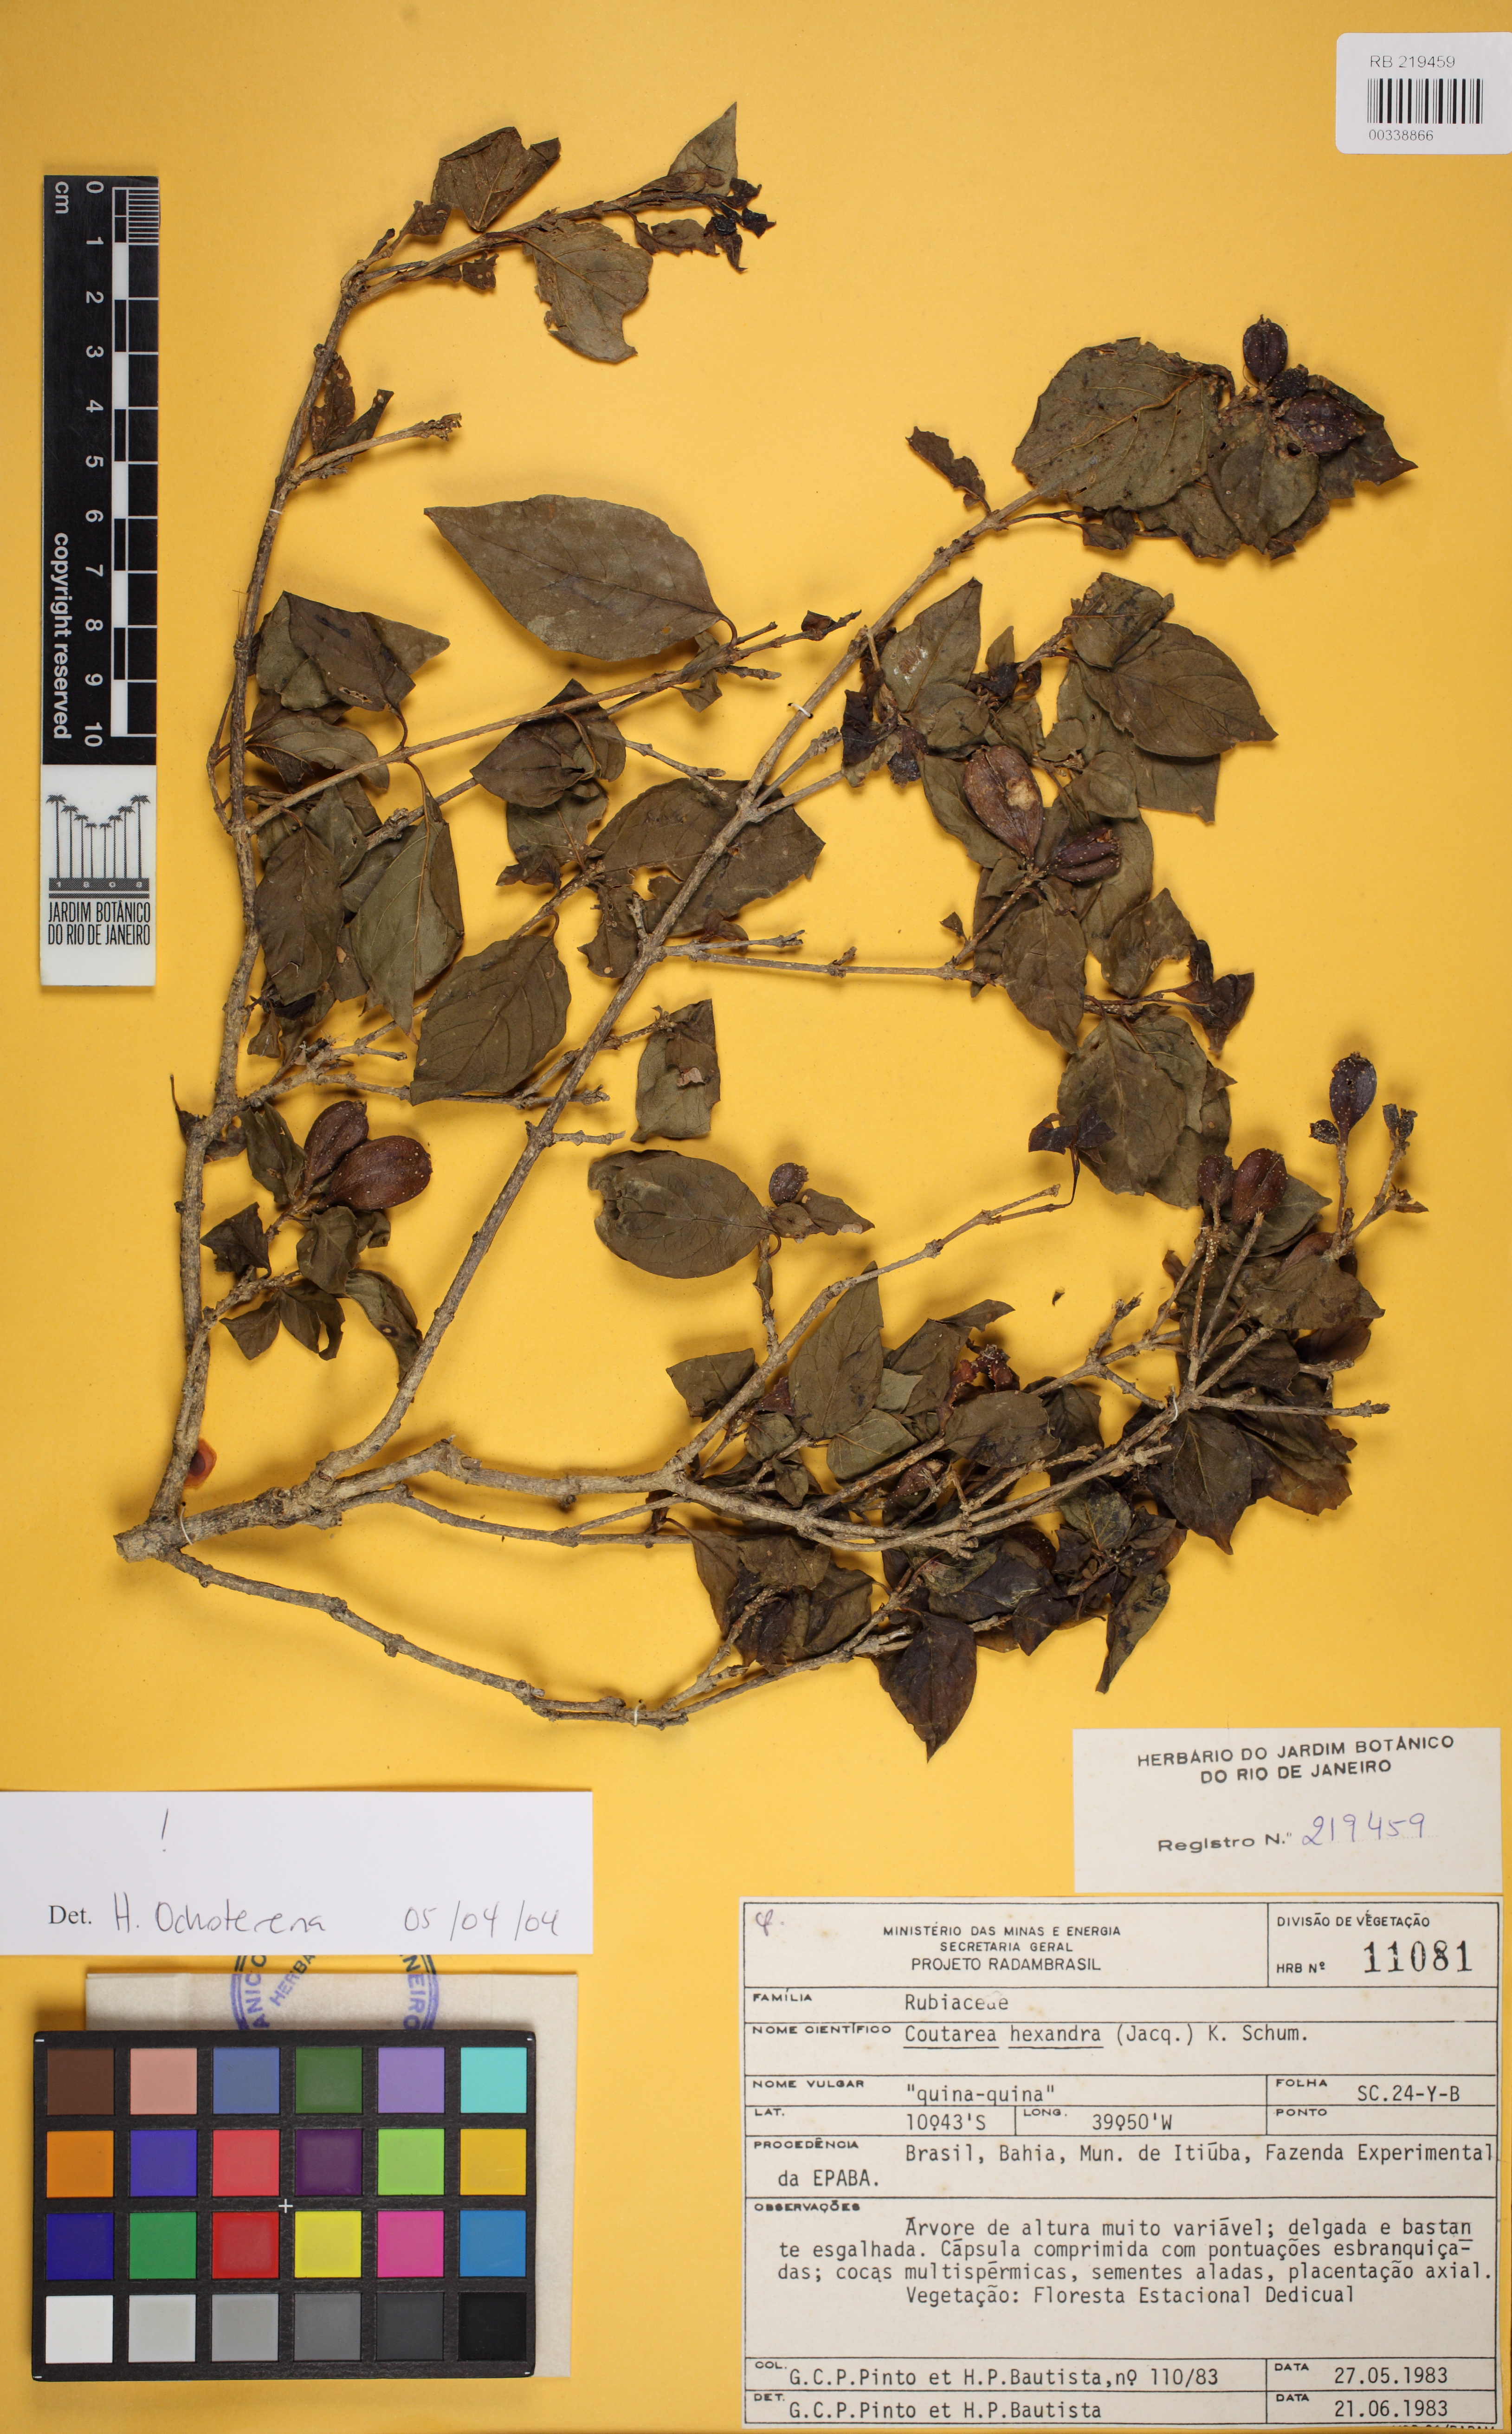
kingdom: Plantae
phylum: Tracheophyta
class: Magnoliopsida
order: Gentianales
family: Rubiaceae
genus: Coutarea
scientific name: Coutarea hexandra
